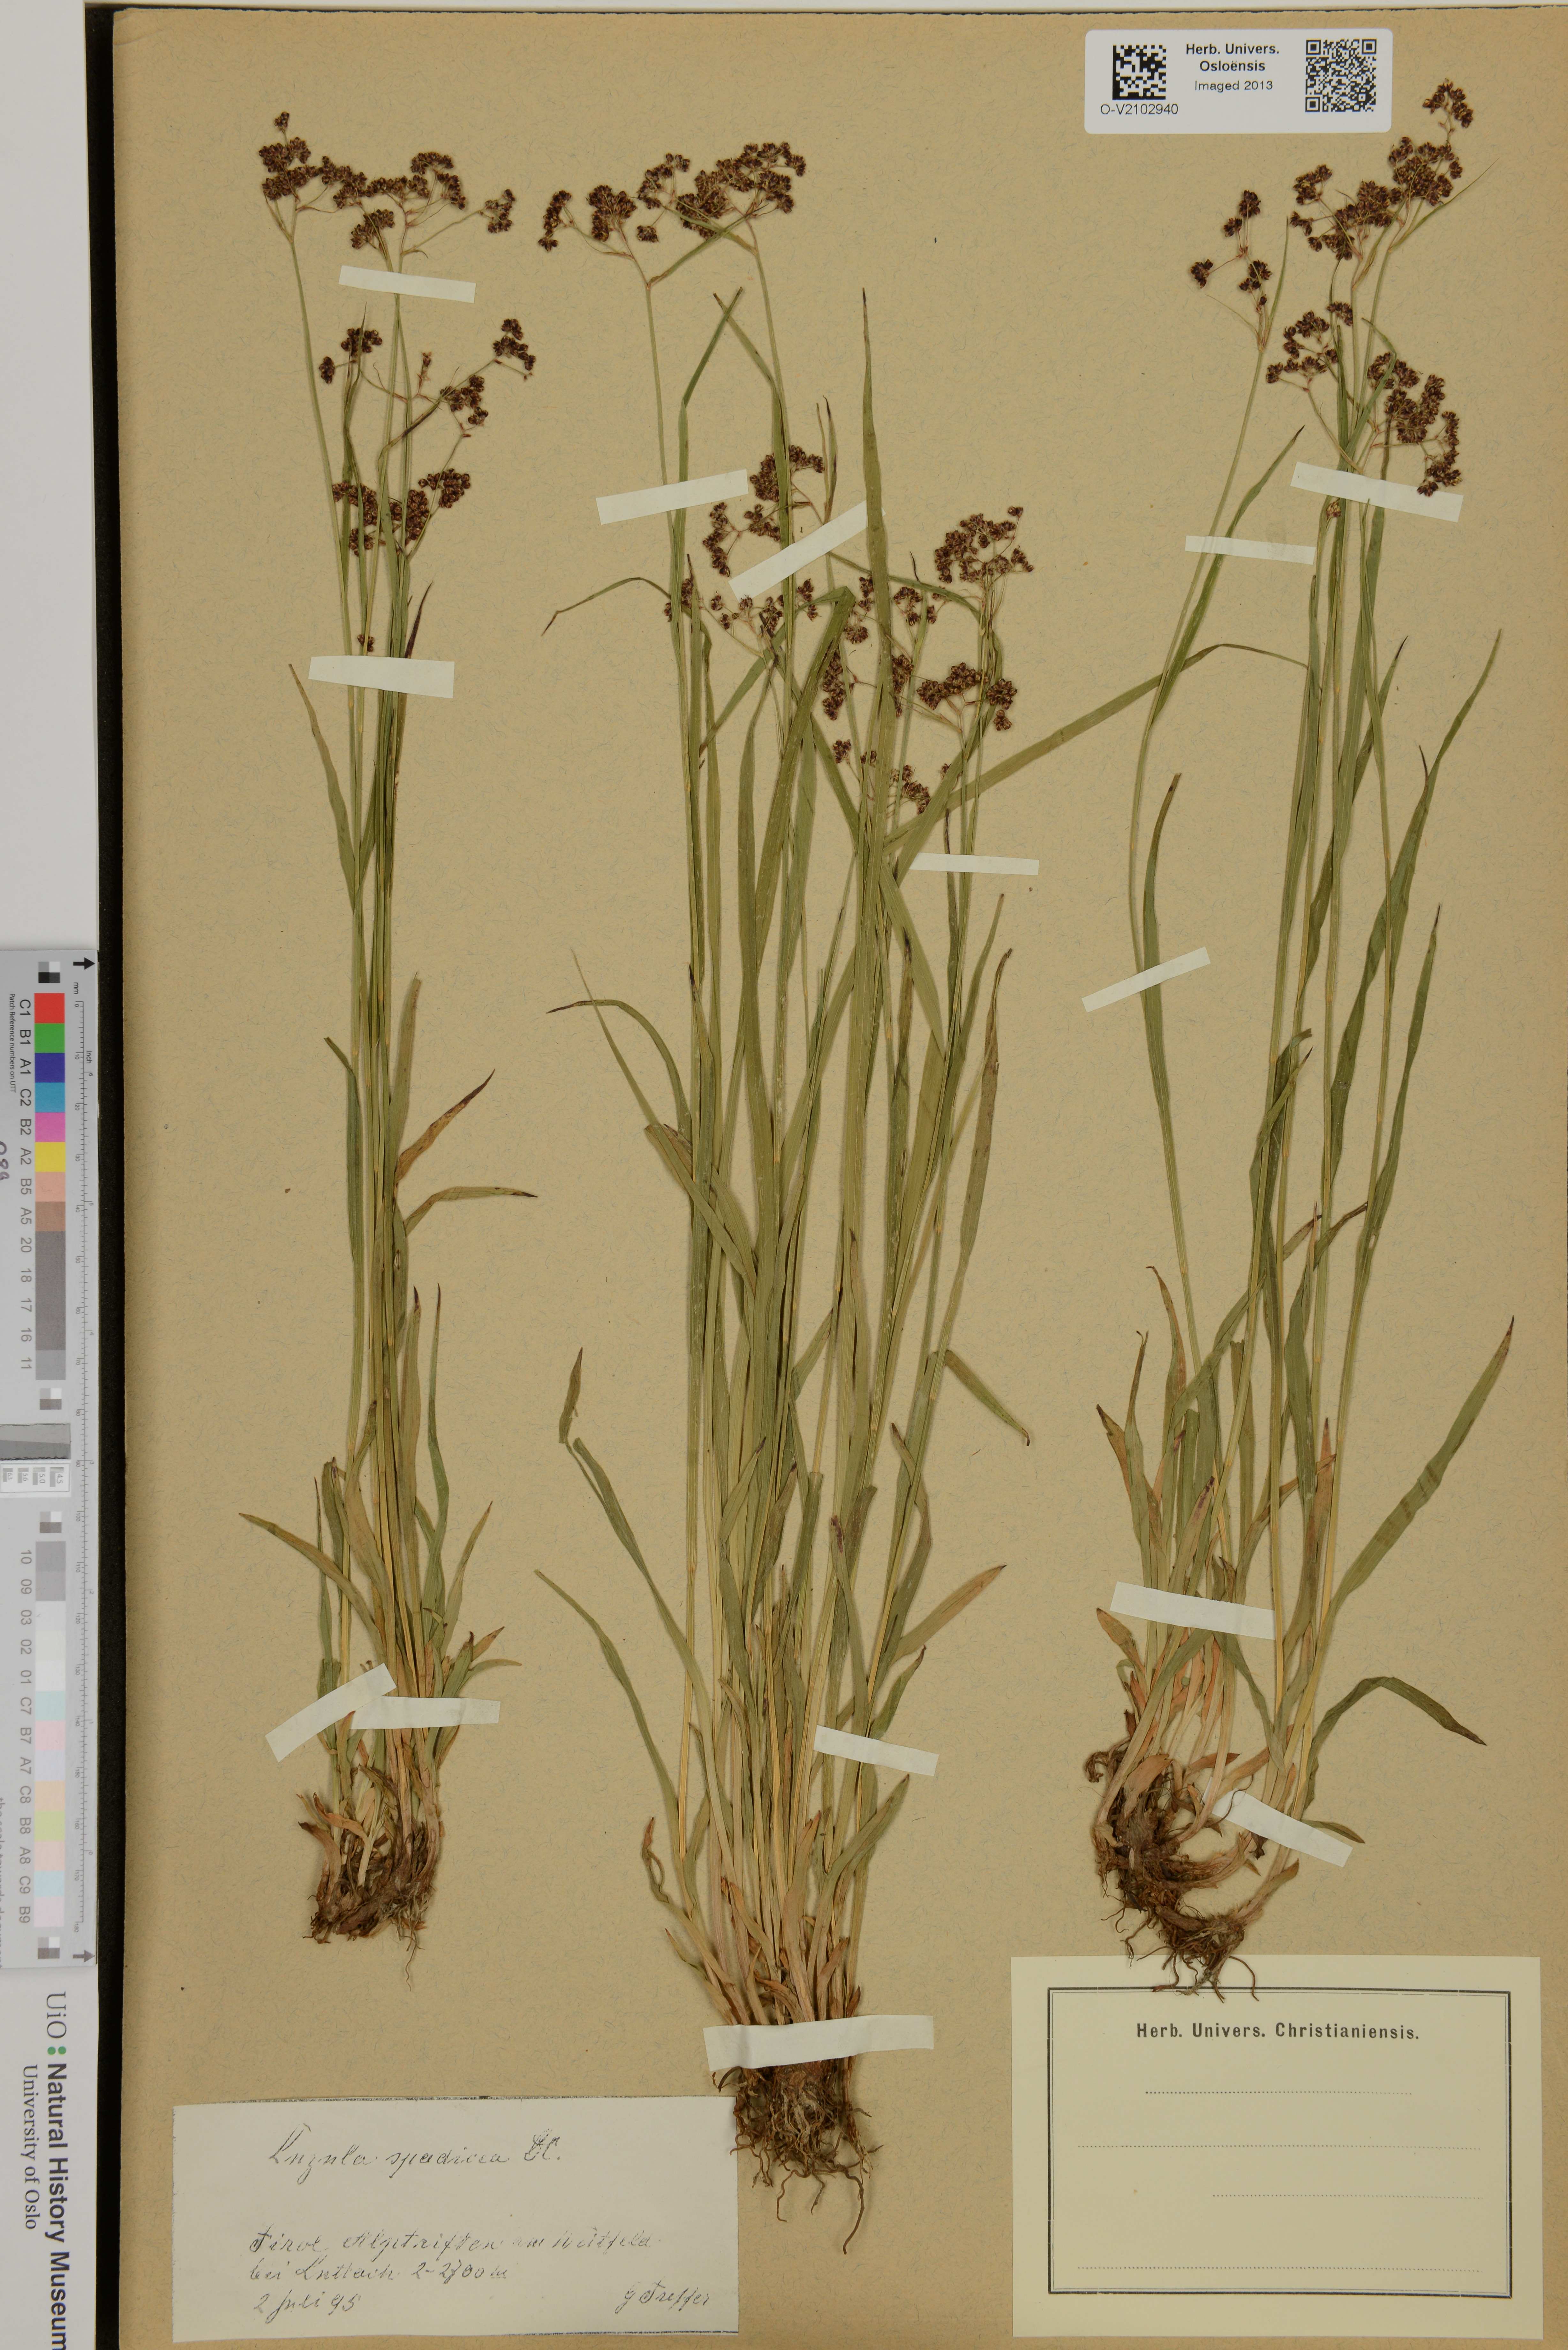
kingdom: Plantae
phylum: Tracheophyta
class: Liliopsida
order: Poales
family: Juncaceae
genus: Luzula
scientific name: Luzula alpinopilosa
